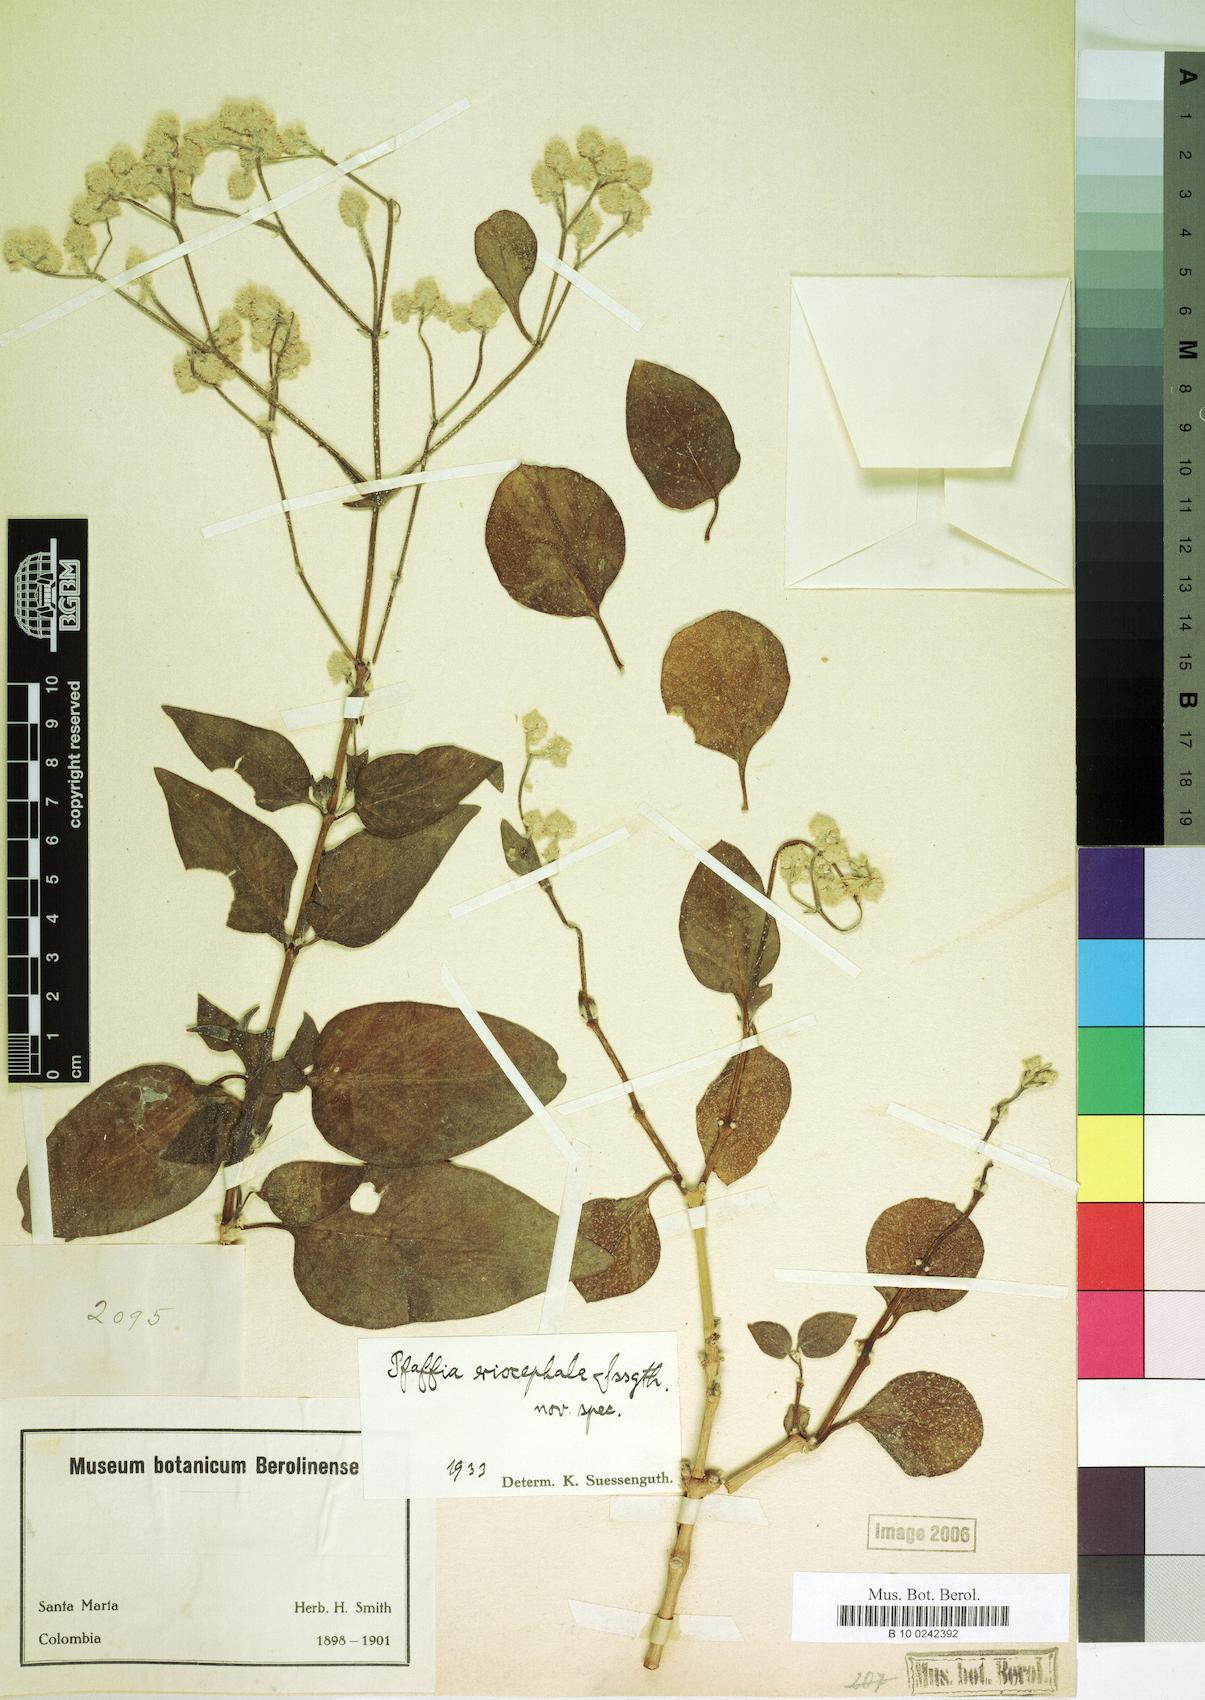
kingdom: Plantae
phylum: Tracheophyta
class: Magnoliopsida
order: Caryophyllales
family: Amaranthaceae
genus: Pfaffia
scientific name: Pfaffia eriocephala
